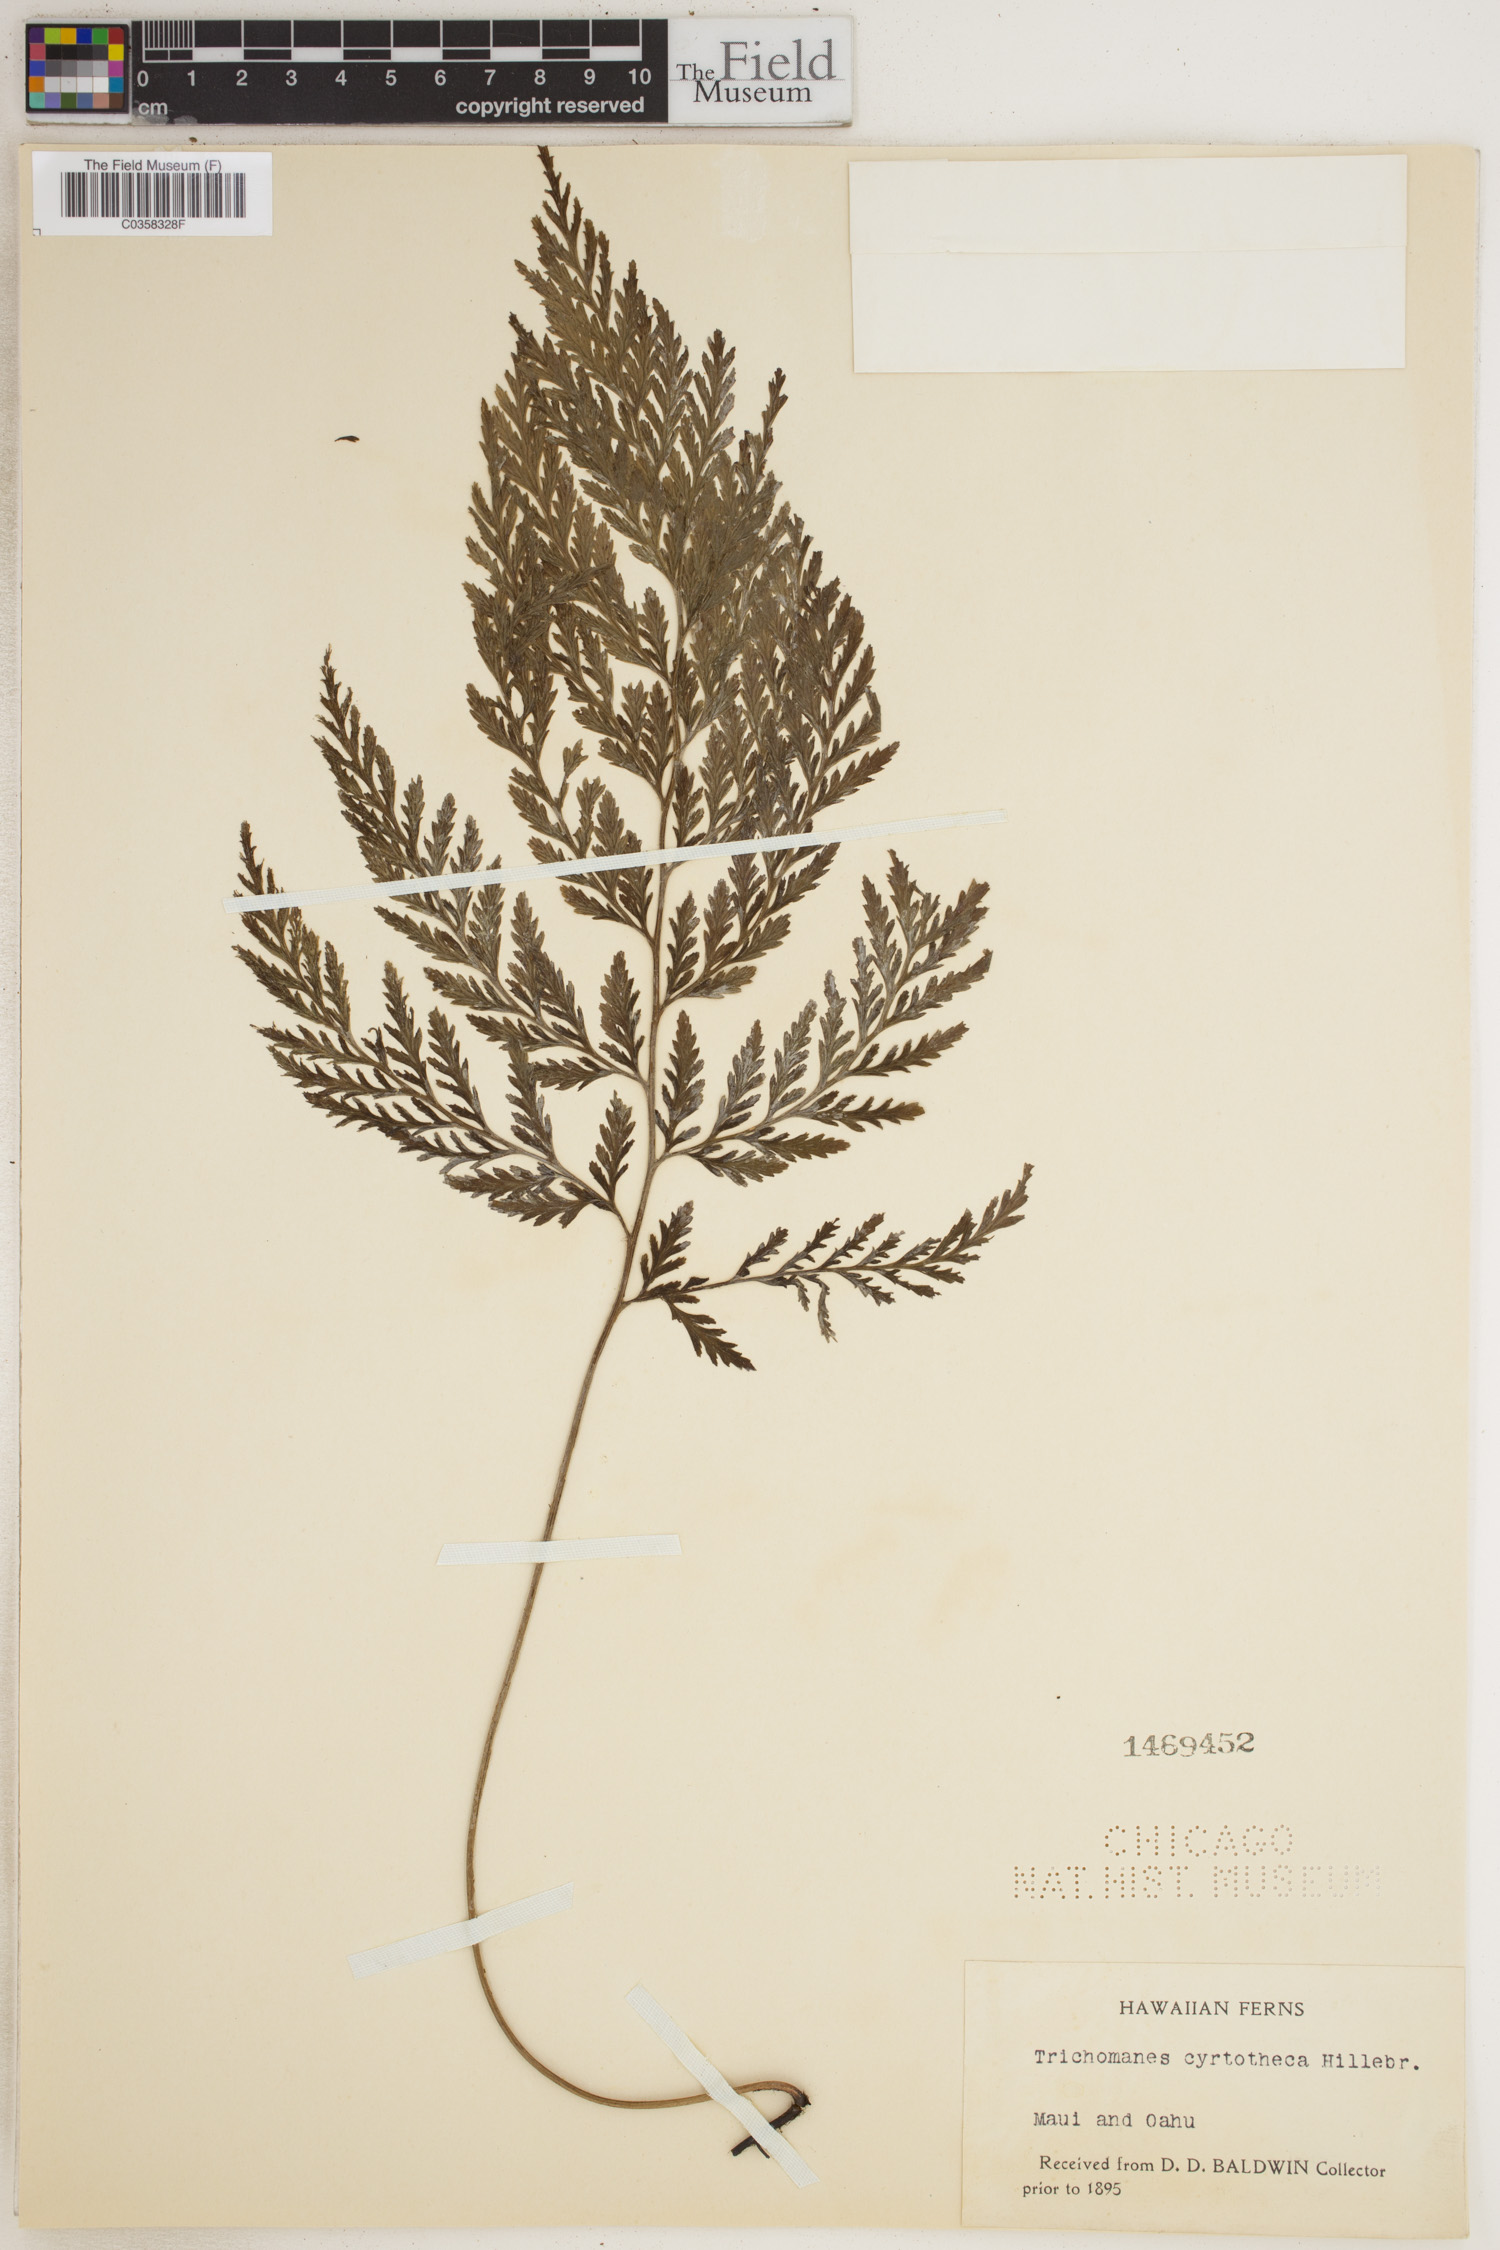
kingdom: Plantae
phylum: Tracheophyta
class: Polypodiopsida
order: Hymenophyllales
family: Hymenophyllaceae
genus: Vandenboschia
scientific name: Vandenboschia cyrtotheca
